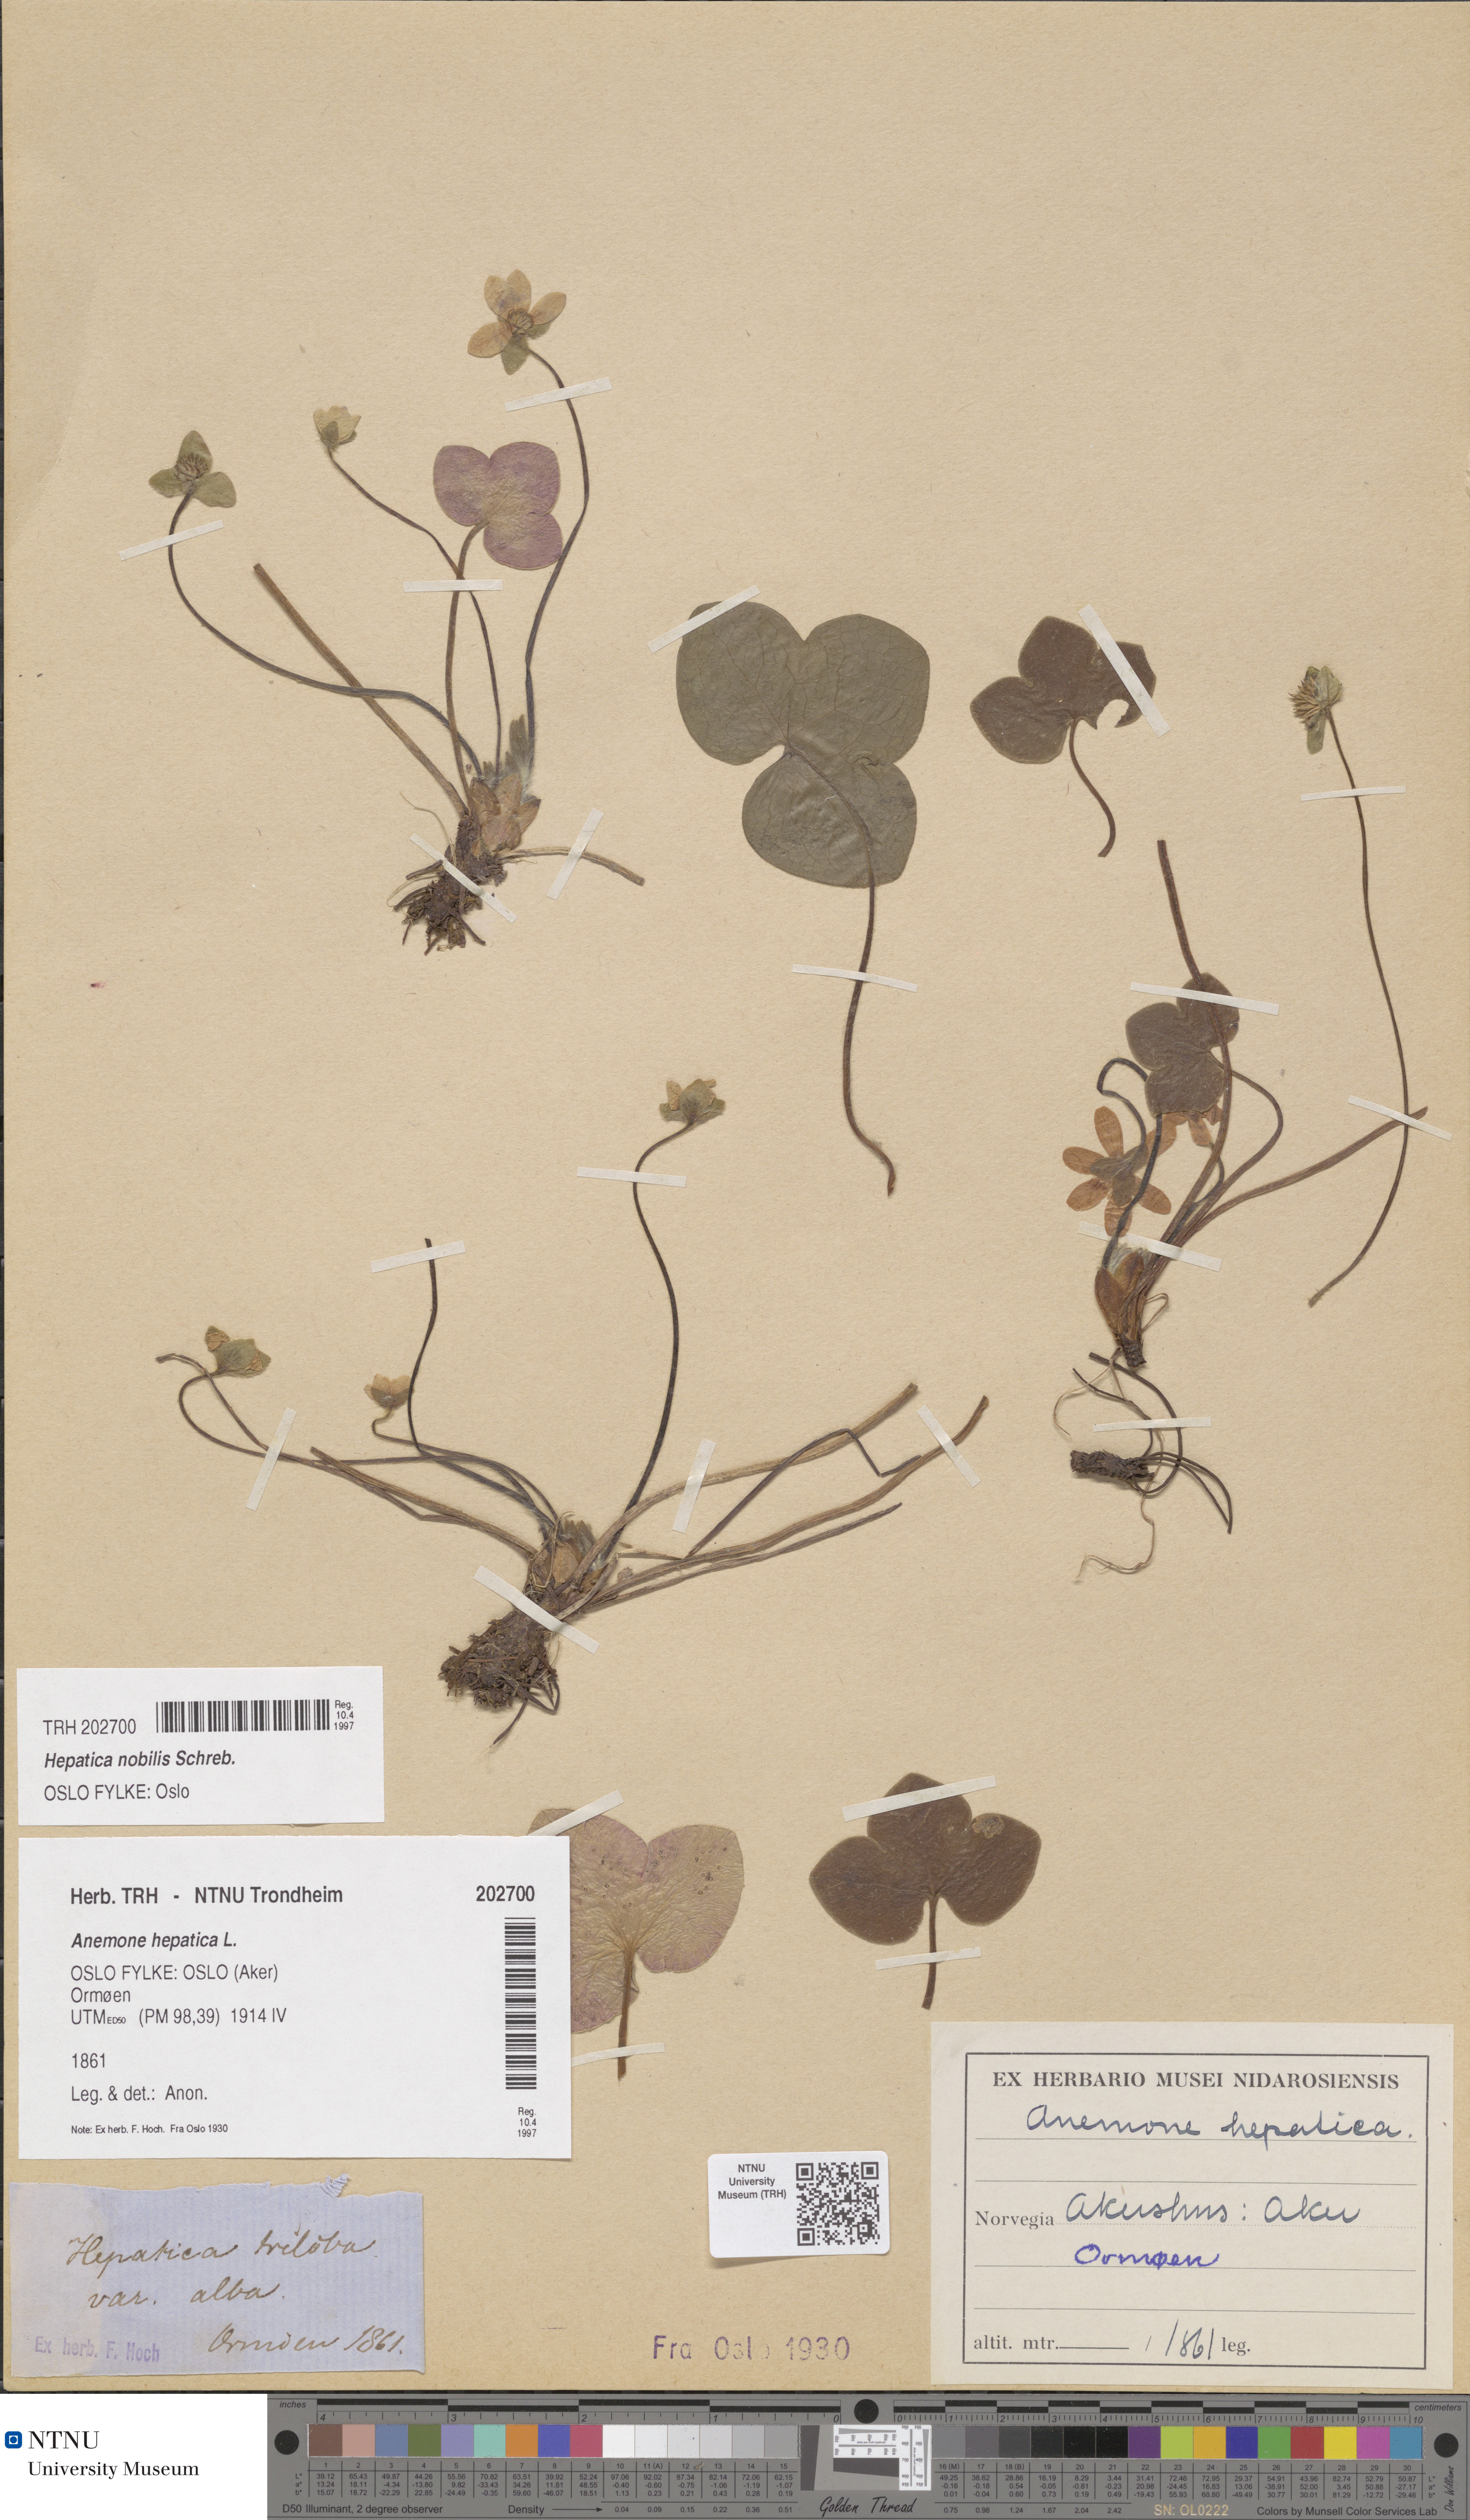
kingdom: Plantae
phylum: Tracheophyta
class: Magnoliopsida
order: Ranunculales
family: Ranunculaceae
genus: Hepatica
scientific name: Hepatica nobilis
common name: Liverleaf
